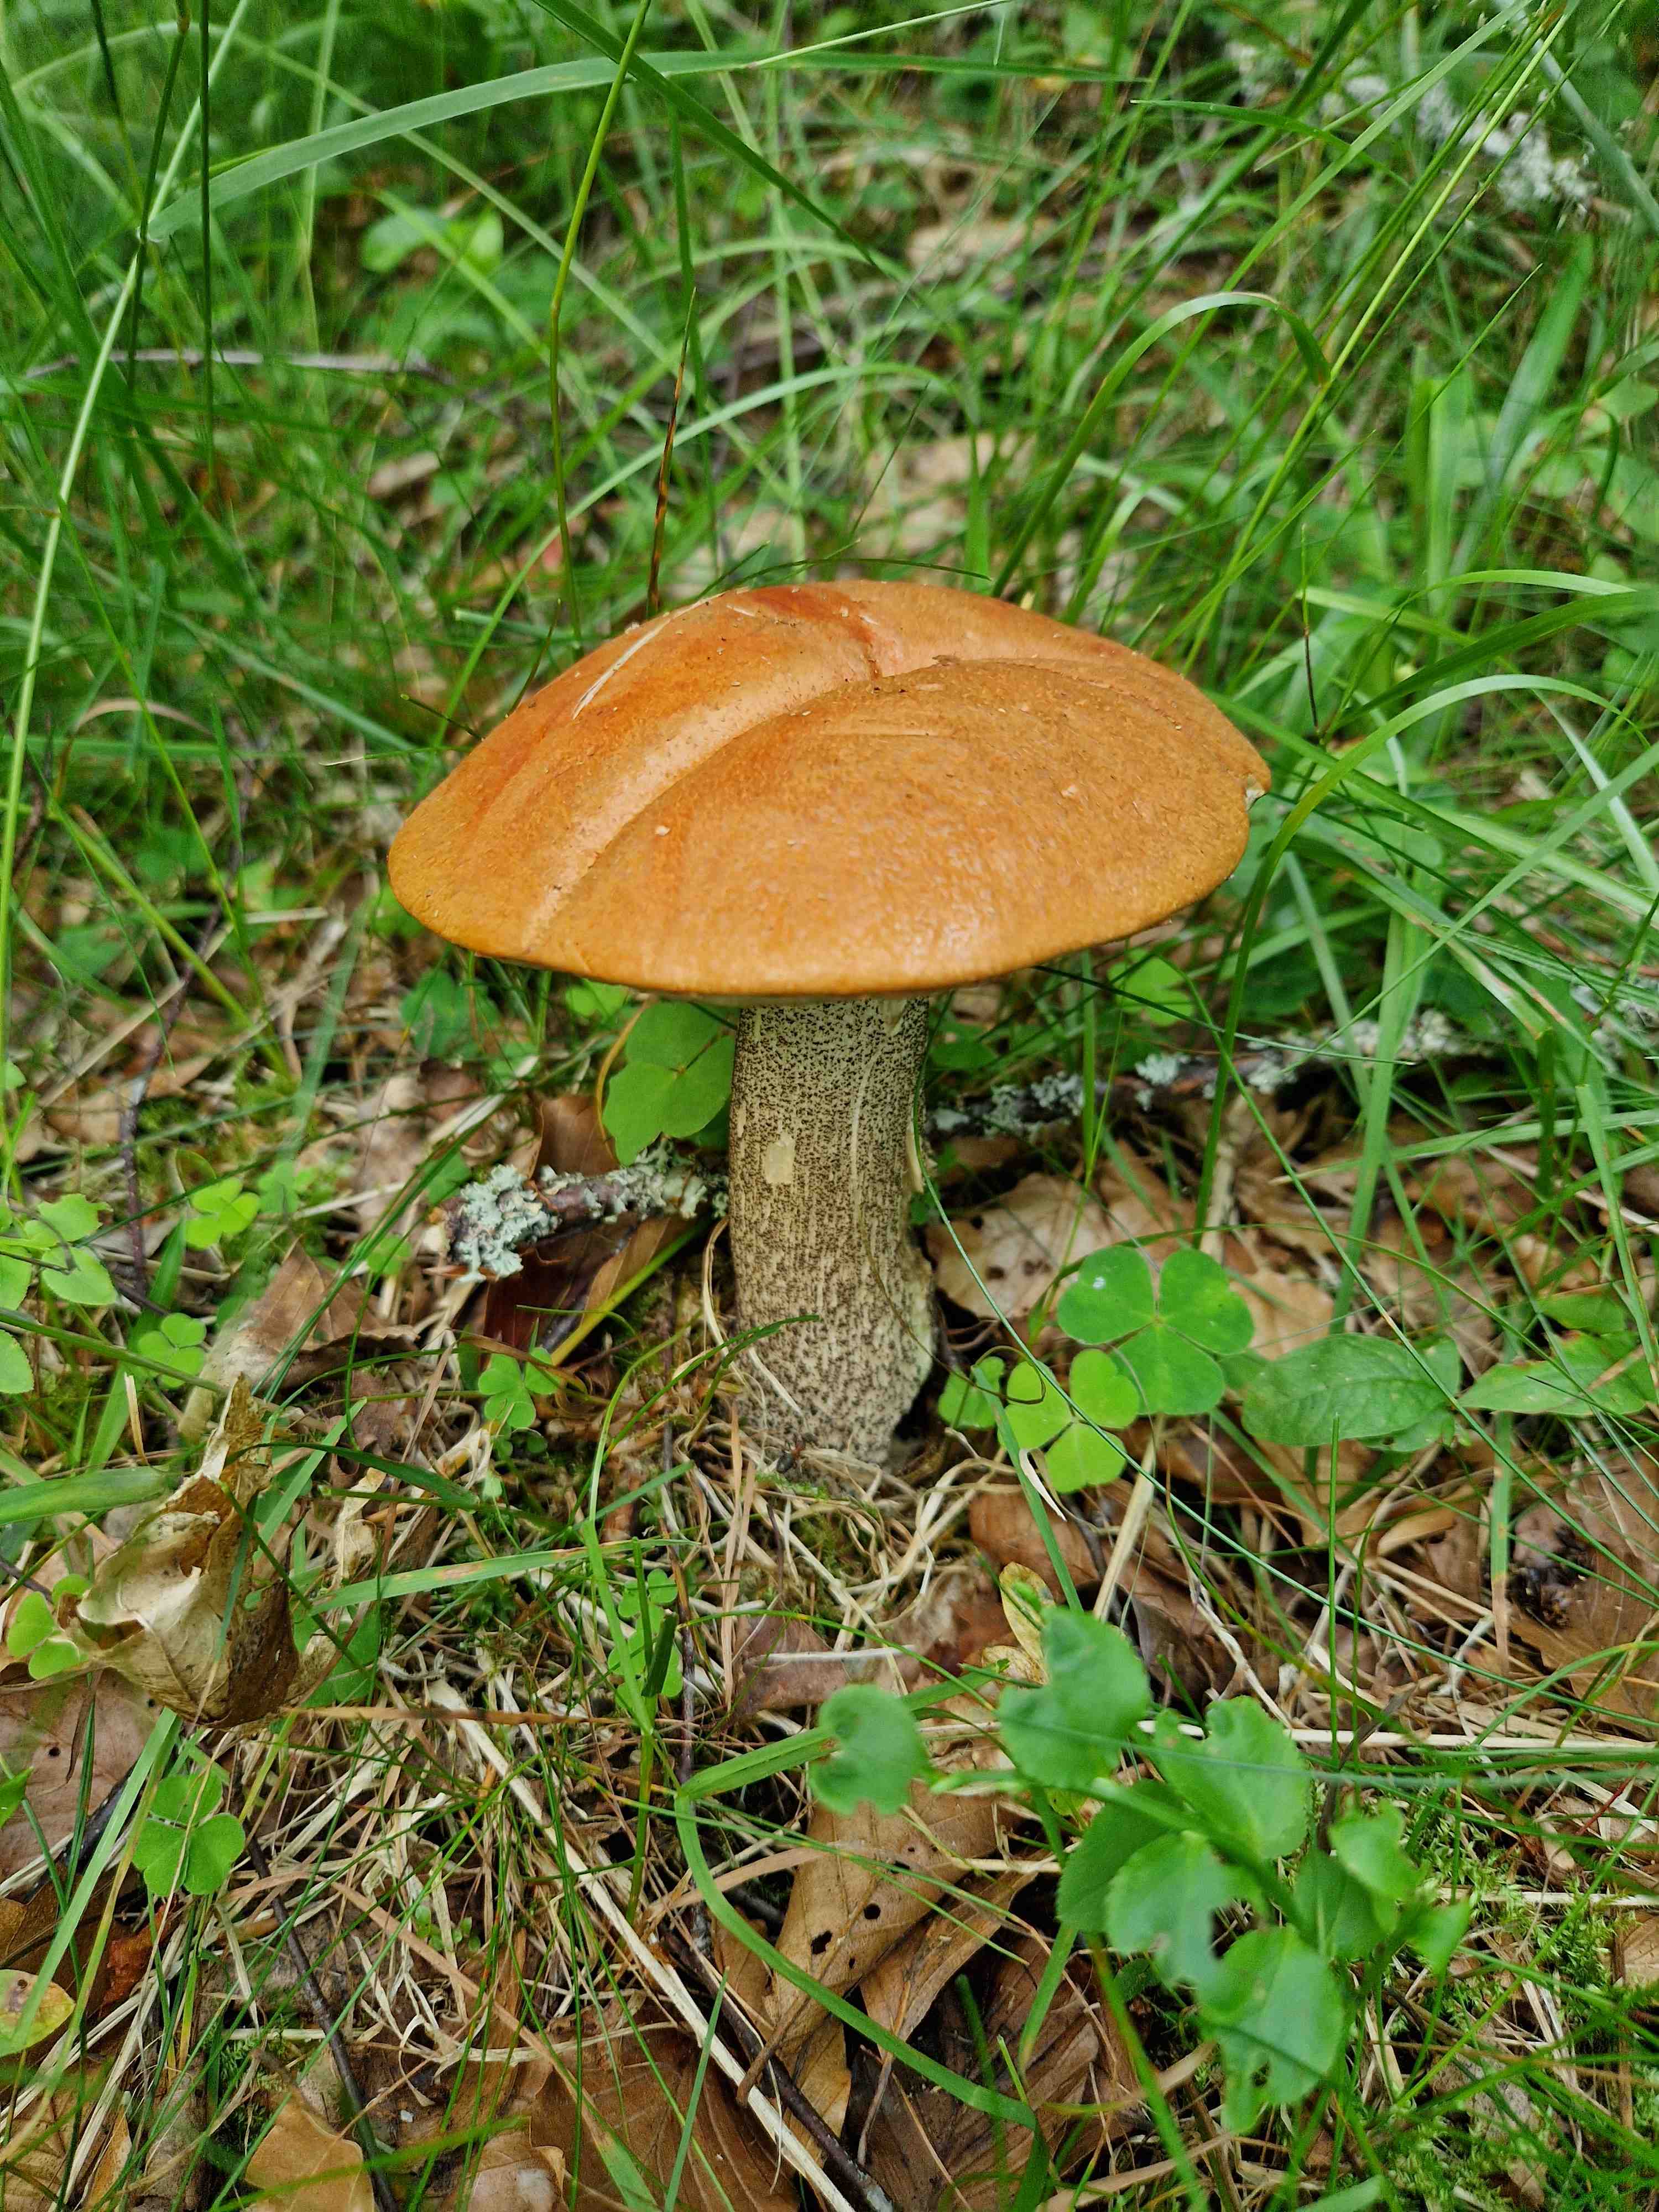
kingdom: Fungi
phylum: Basidiomycota
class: Agaricomycetes
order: Boletales
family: Boletaceae
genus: Leccinum
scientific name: Leccinum versipelle
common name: orange skælrørhat
